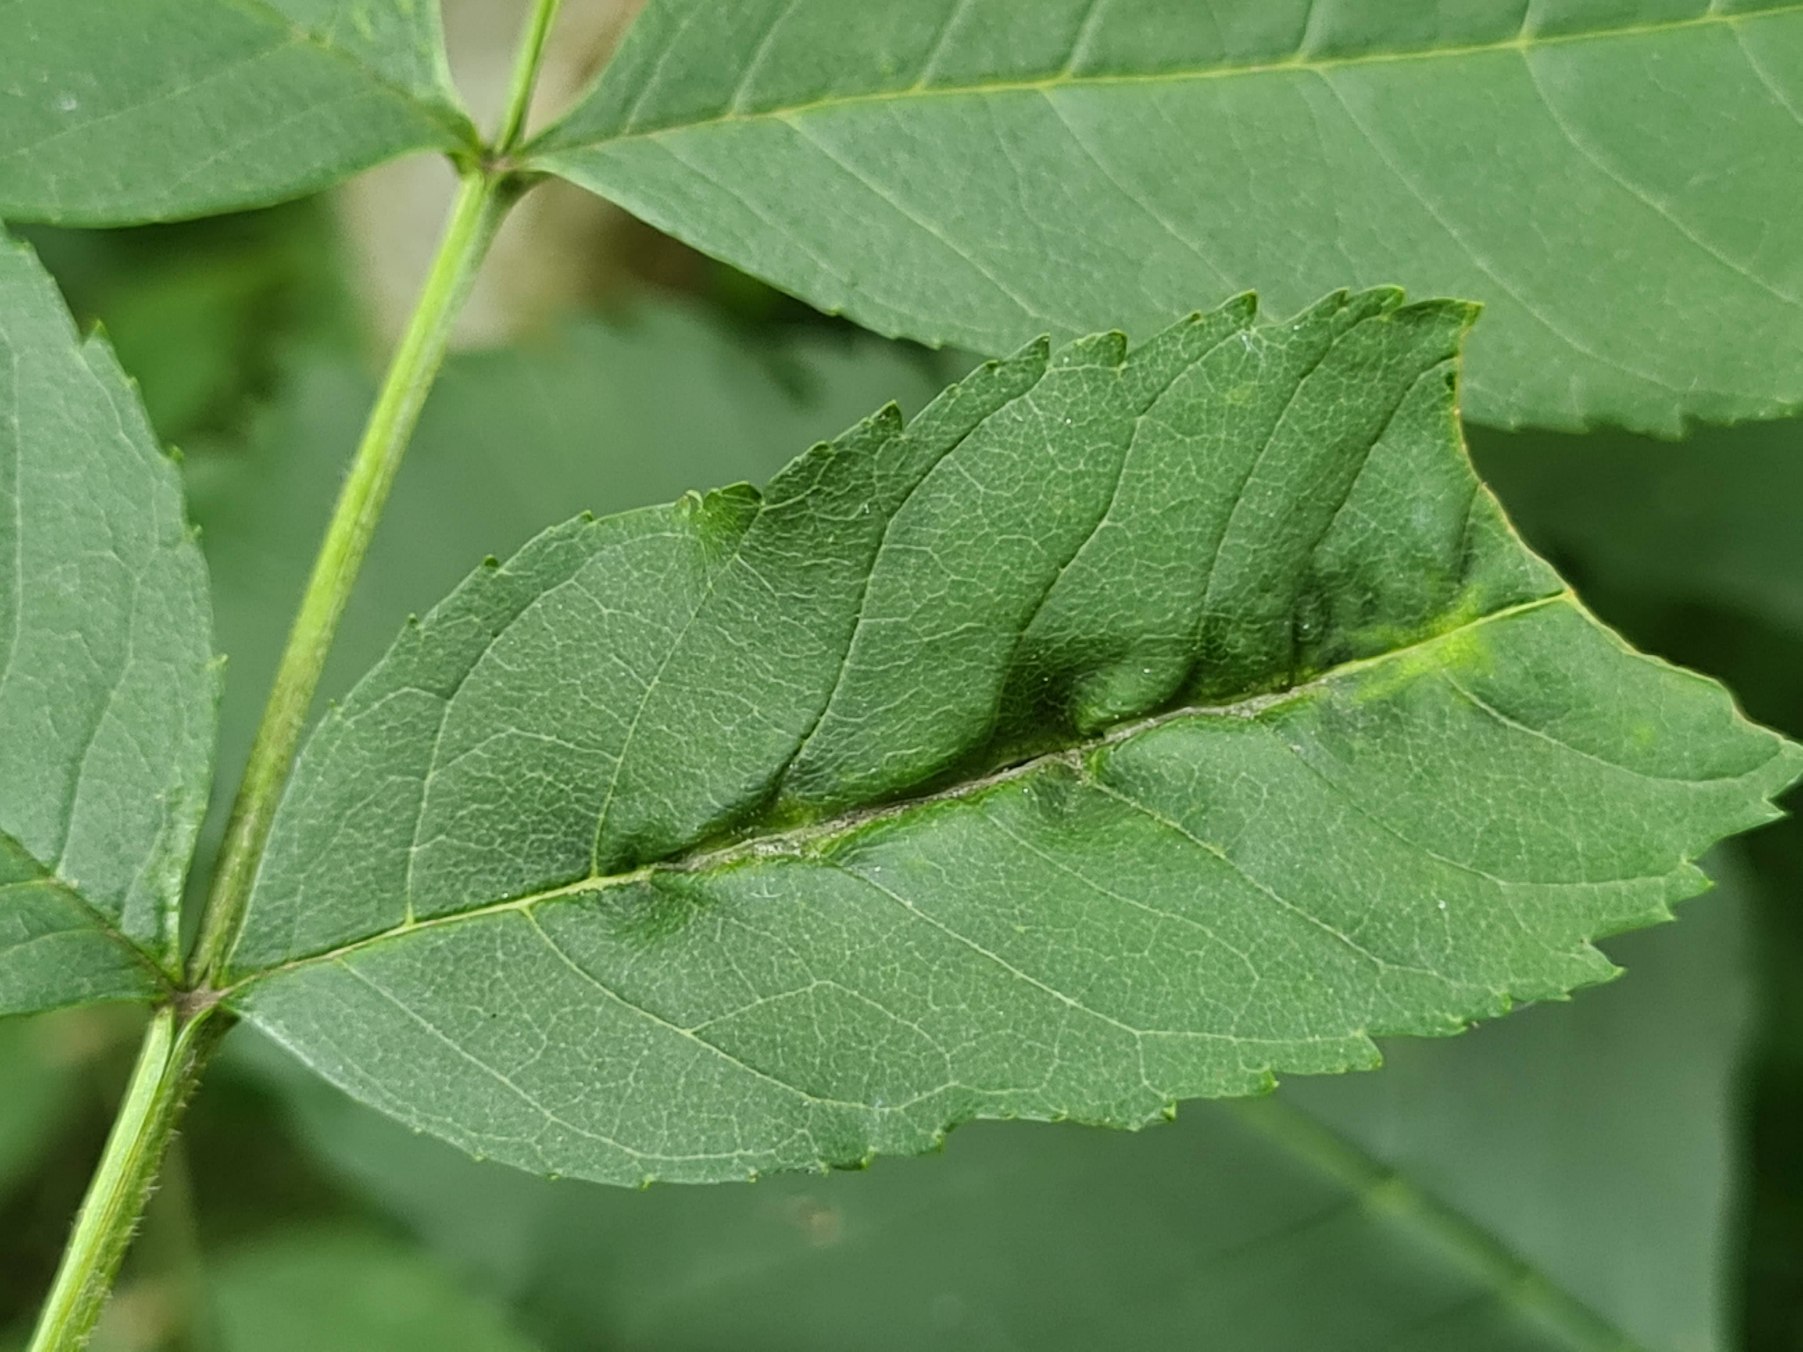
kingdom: Animalia
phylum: Arthropoda
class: Insecta
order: Diptera
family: Cecidomyiidae
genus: Dasineura
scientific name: Dasineura fraxini
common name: Orange askebladgalmyg
